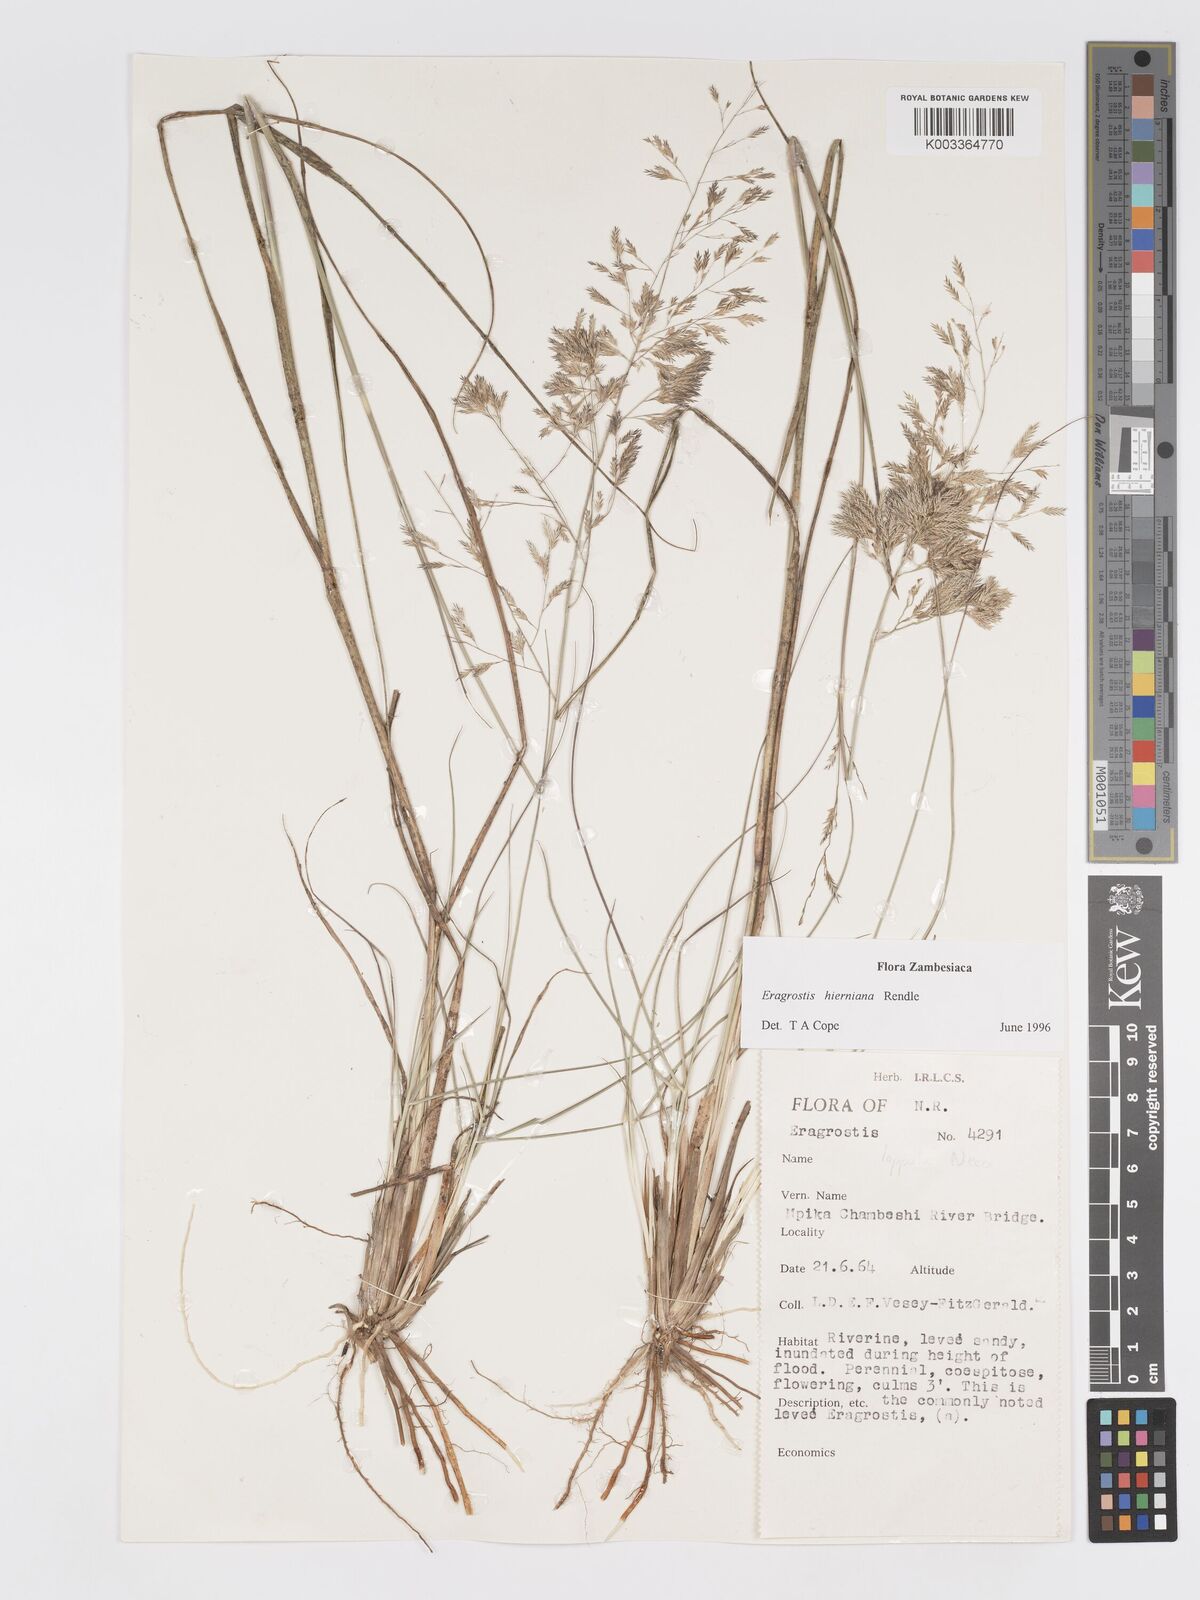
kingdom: Plantae
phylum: Tracheophyta
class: Liliopsida
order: Poales
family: Poaceae
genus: Eragrostis
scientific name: Eragrostis hierniana
